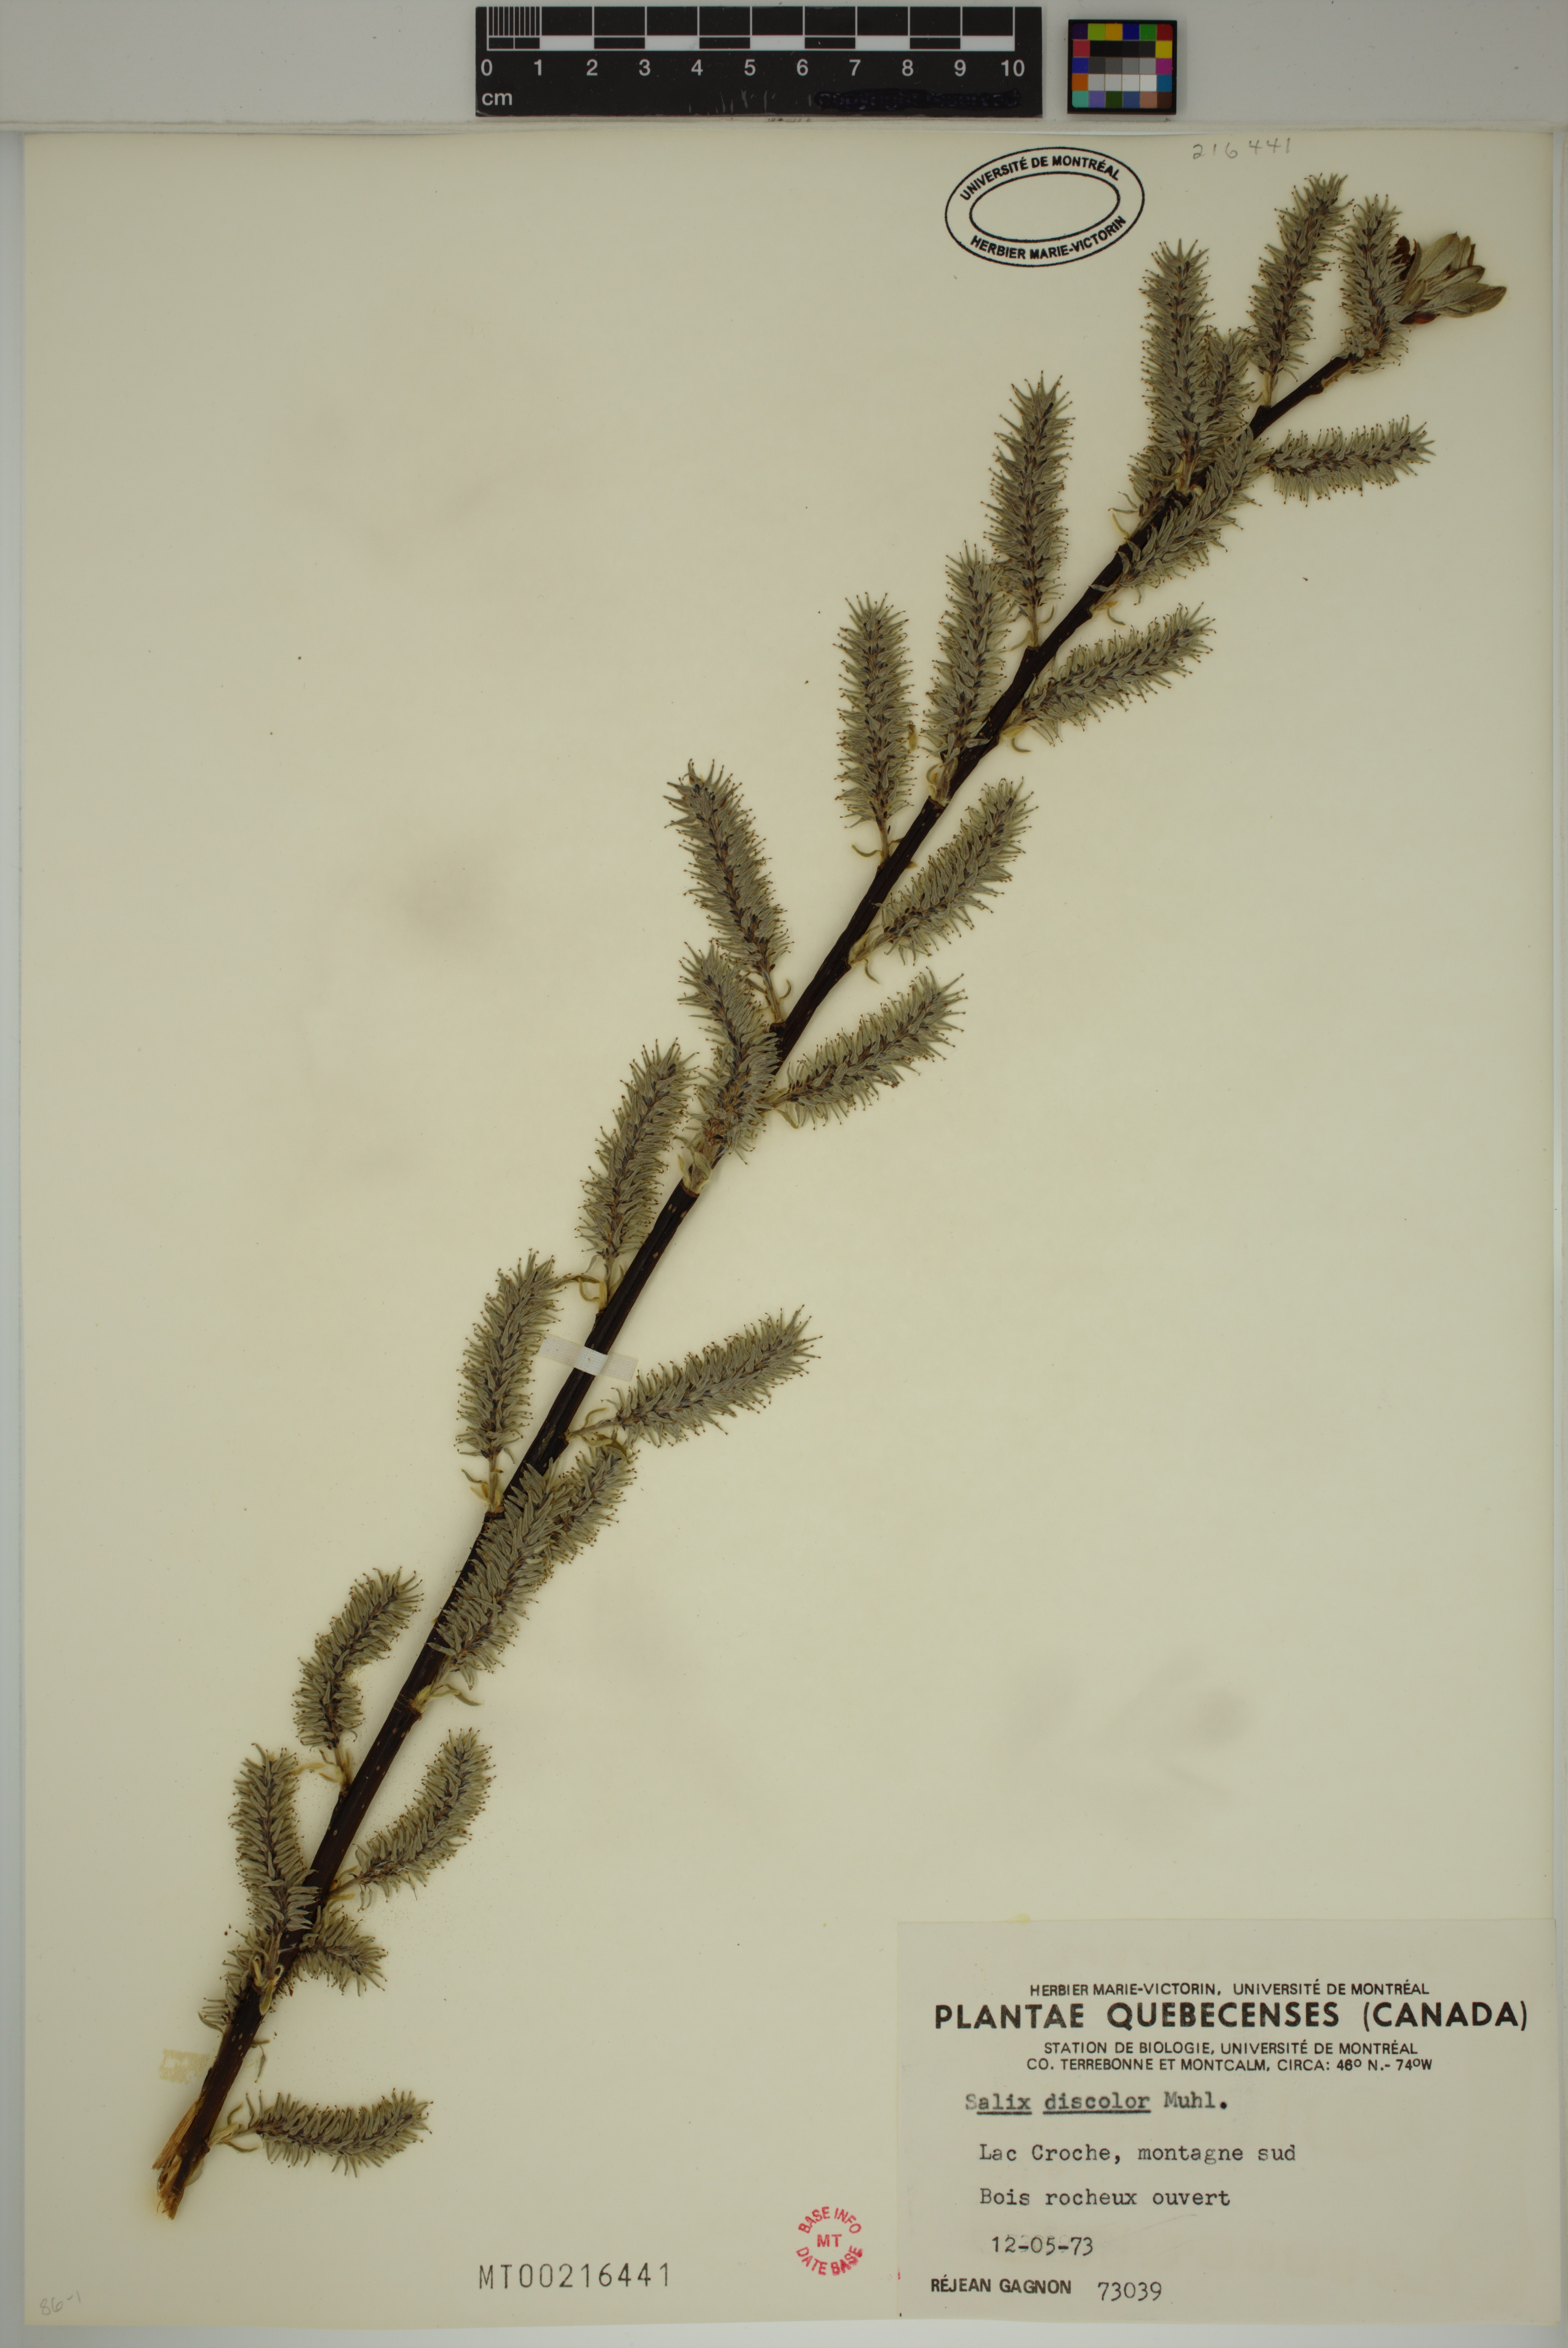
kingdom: Plantae
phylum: Tracheophyta
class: Magnoliopsida
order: Malpighiales
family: Salicaceae
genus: Salix
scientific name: Salix discolor
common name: Glaucous willow
